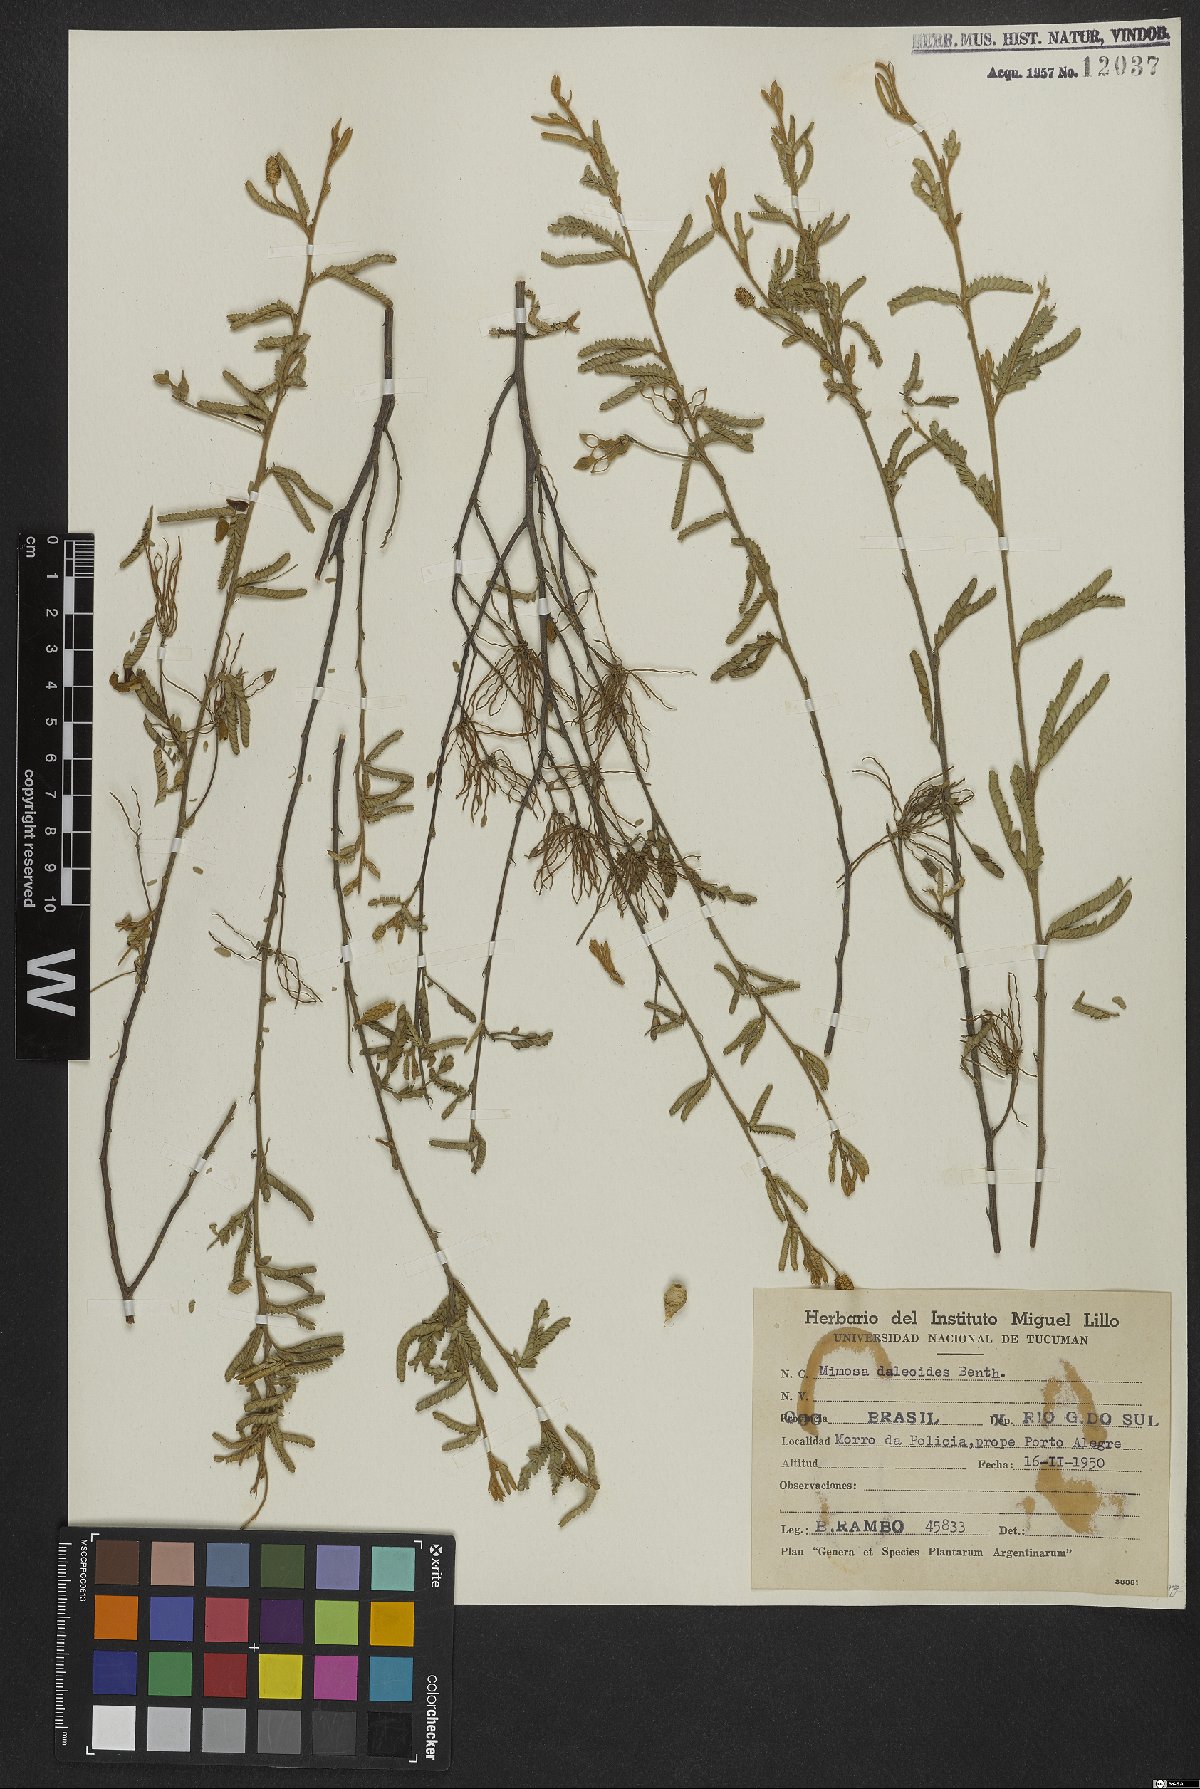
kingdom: Plantae
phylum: Tracheophyta
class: Magnoliopsida
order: Fabales
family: Fabaceae
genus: Mimosa
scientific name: Mimosa daleoides
